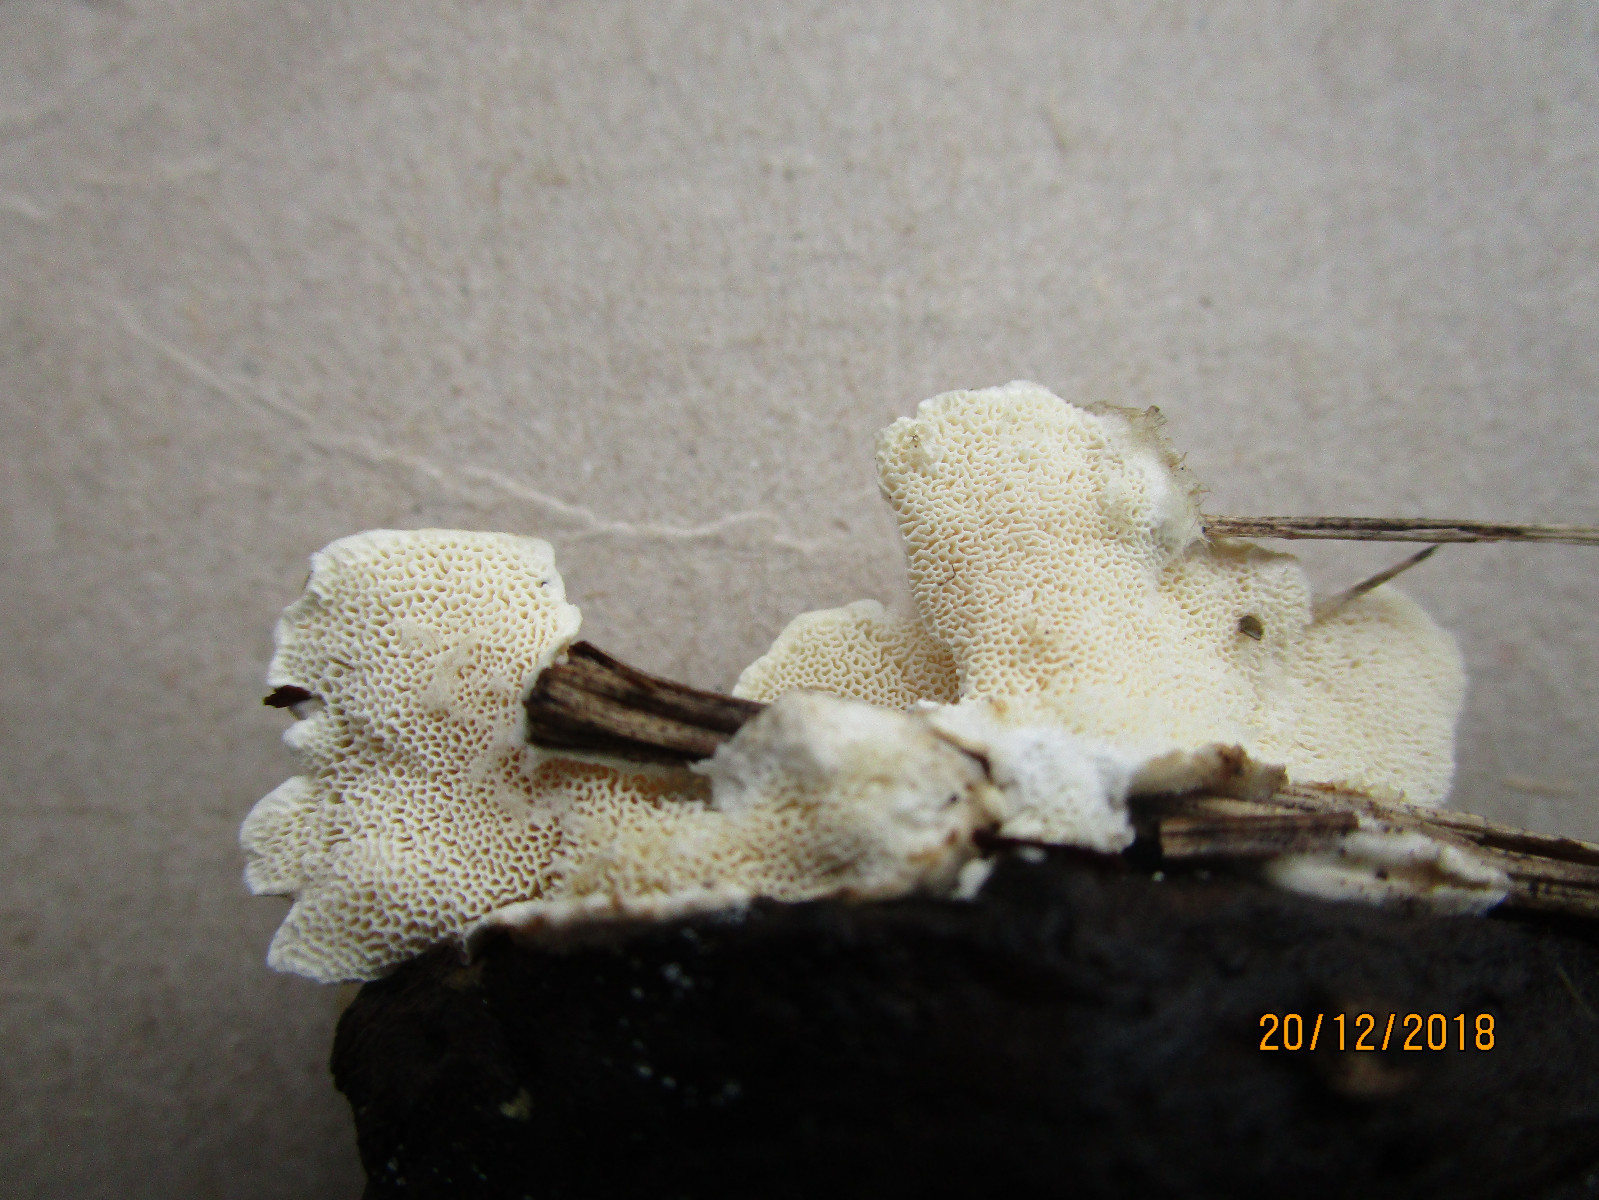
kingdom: Fungi
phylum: Basidiomycota
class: Agaricomycetes
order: Polyporales
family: Polyporaceae
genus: Trametes
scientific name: Trametes hirsuta
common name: håret læderporesvamp
